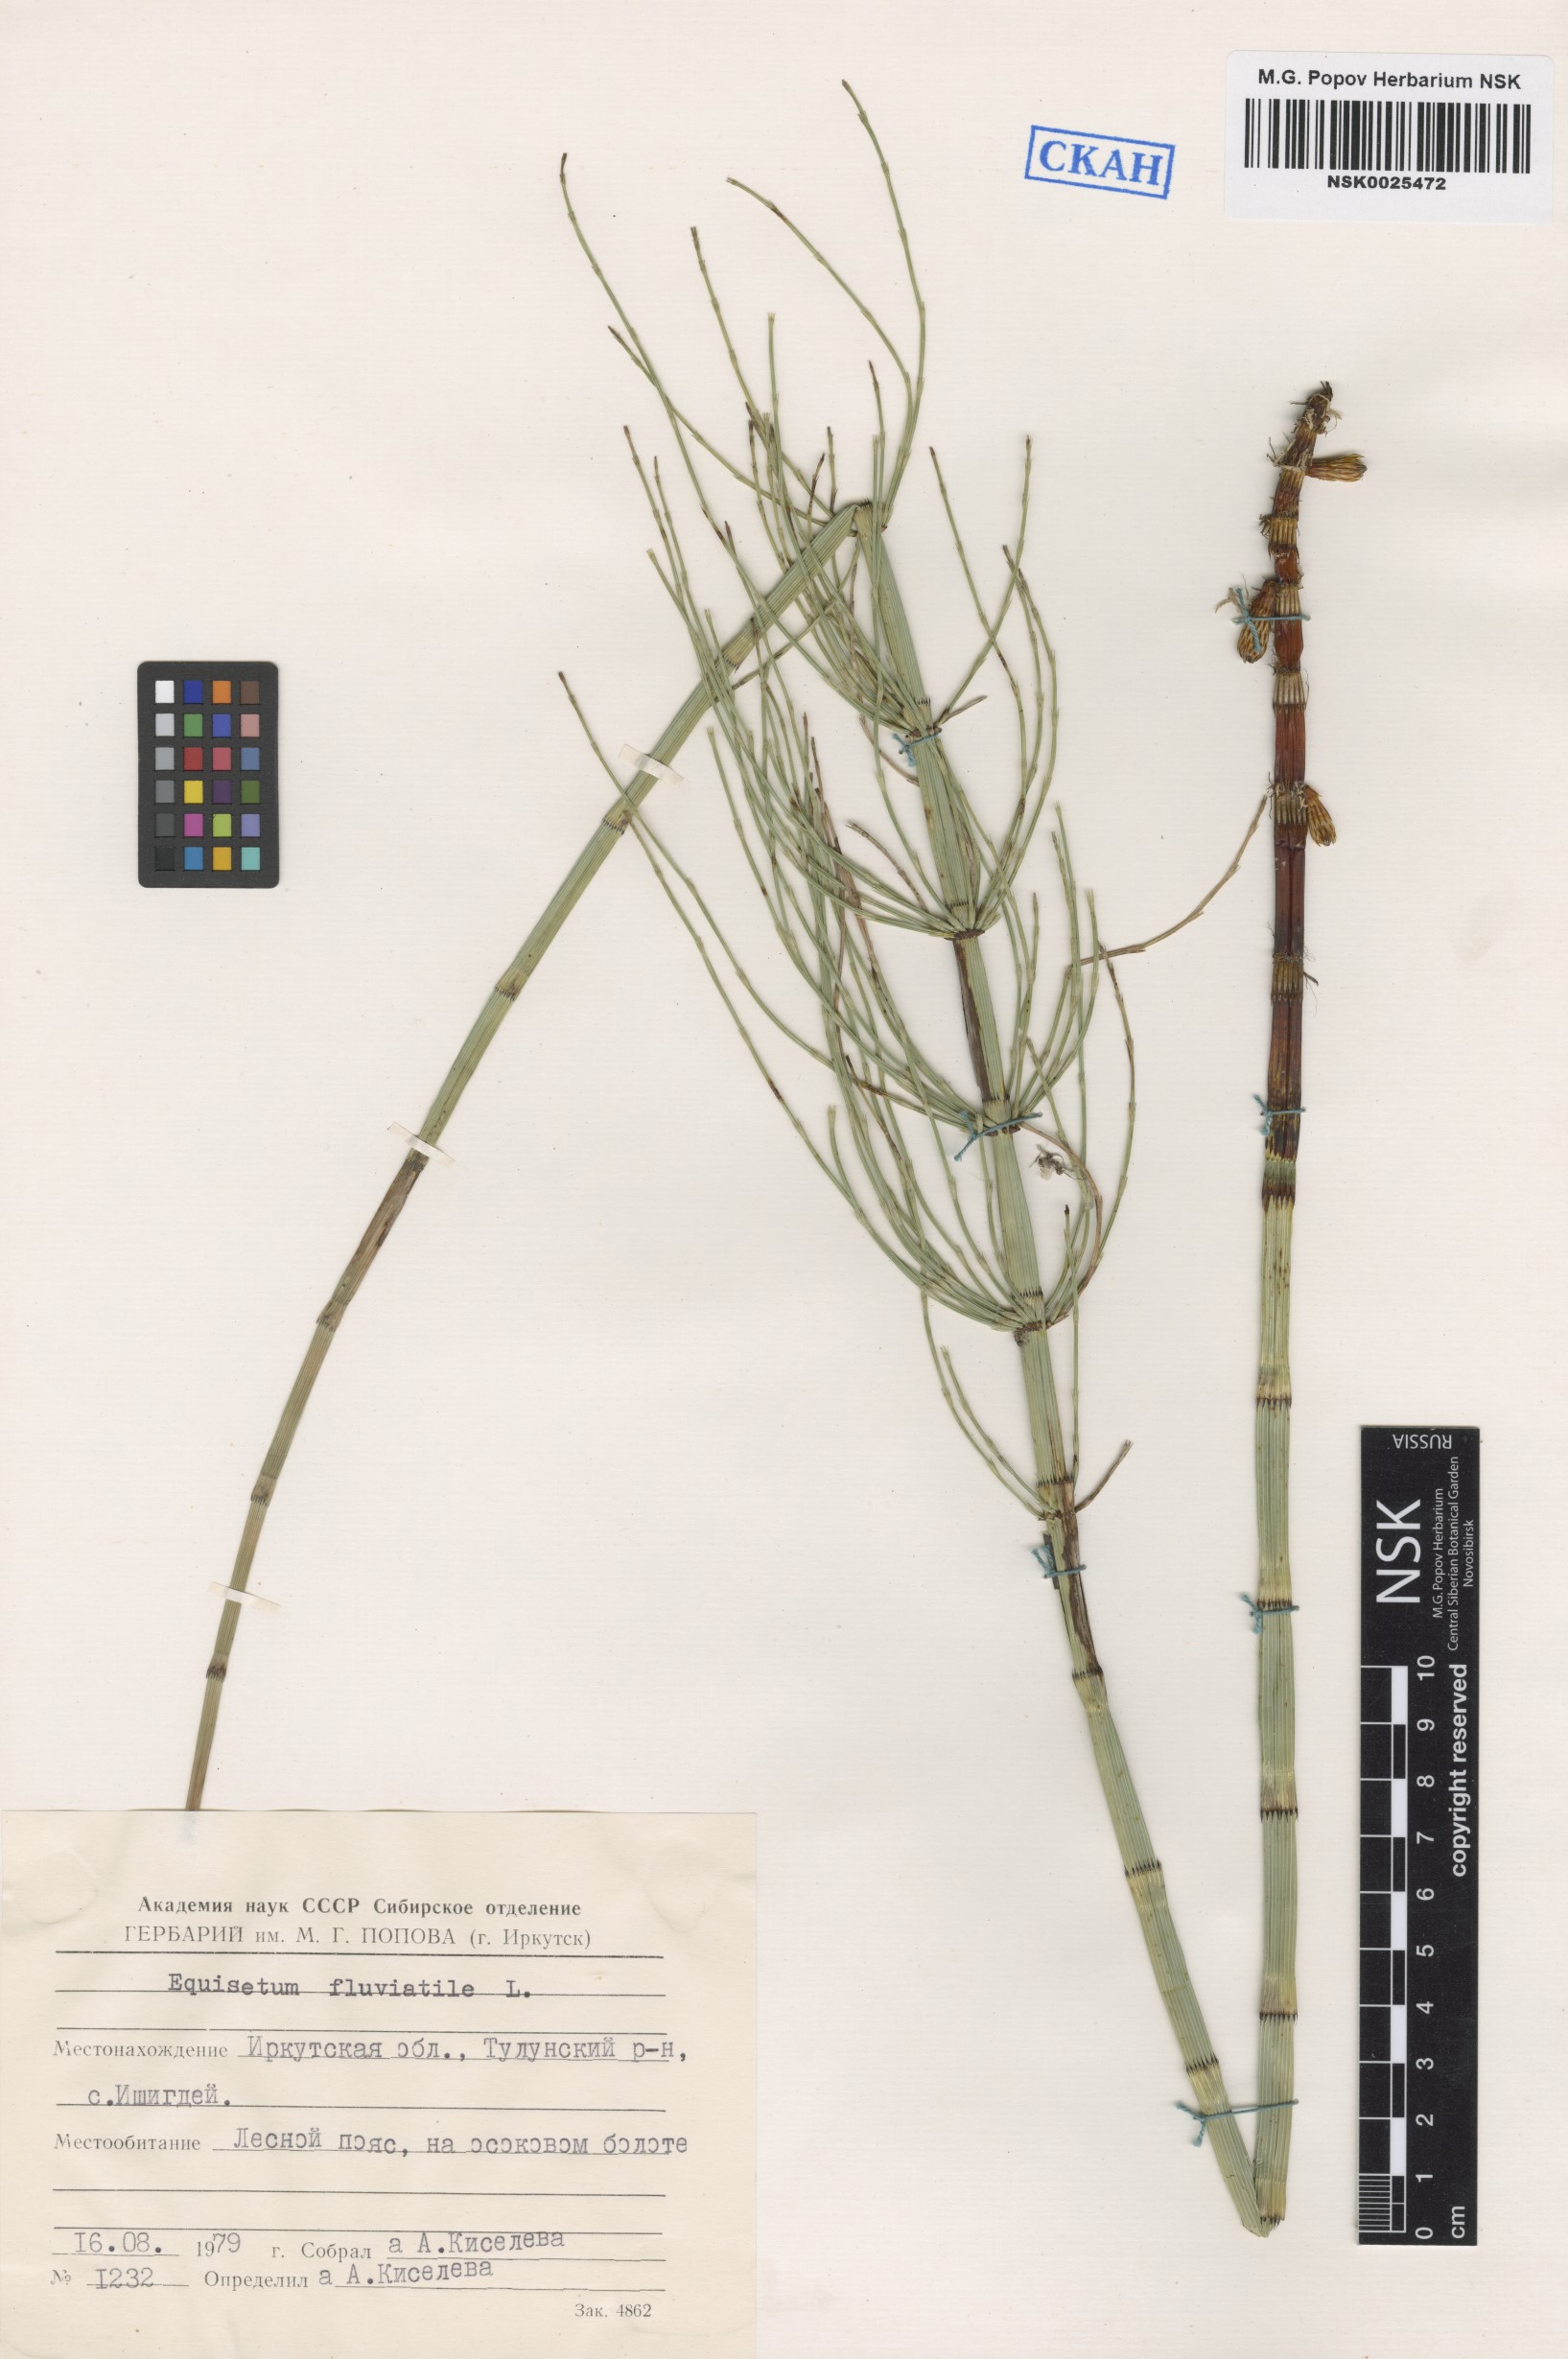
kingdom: Plantae
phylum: Tracheophyta
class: Polypodiopsida
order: Equisetales
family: Equisetaceae
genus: Equisetum
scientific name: Equisetum fluviatile
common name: Water horsetail
